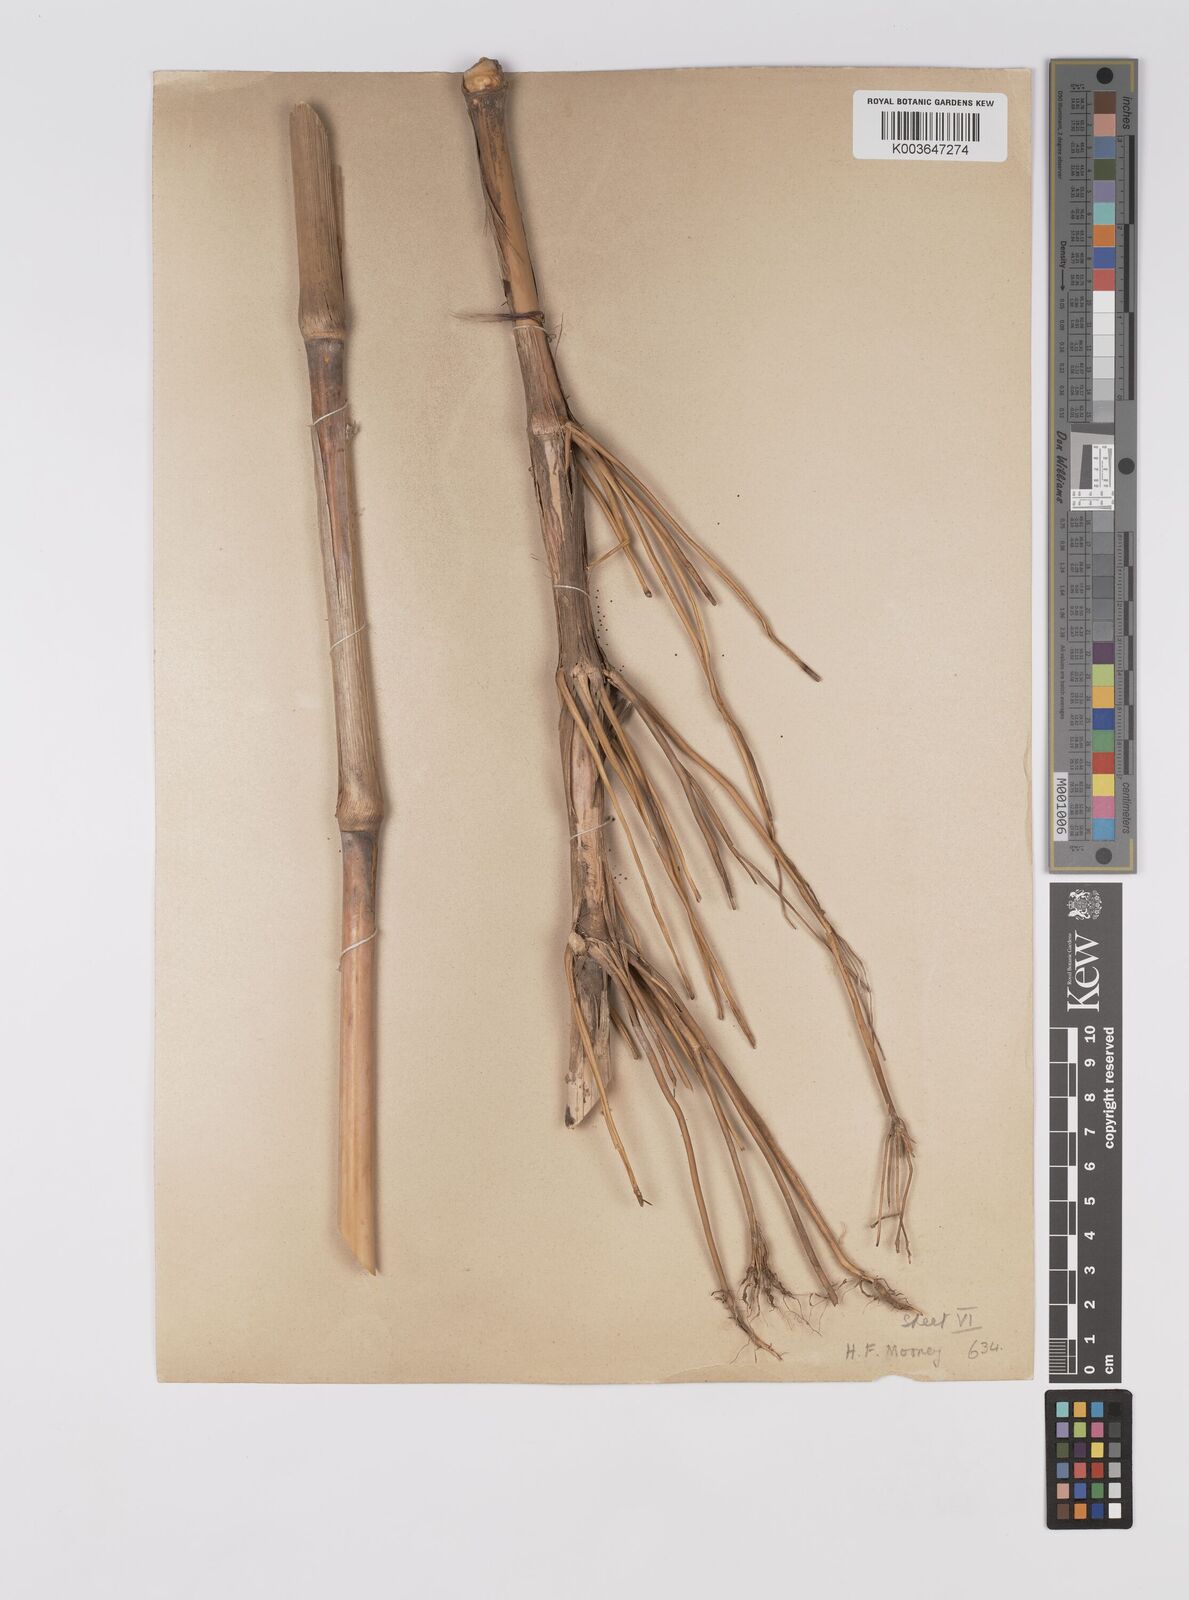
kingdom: Plantae
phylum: Tracheophyta
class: Liliopsida
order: Poales
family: Poaceae
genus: Sorghum
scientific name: Sorghum halepense
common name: Johnson-grass
